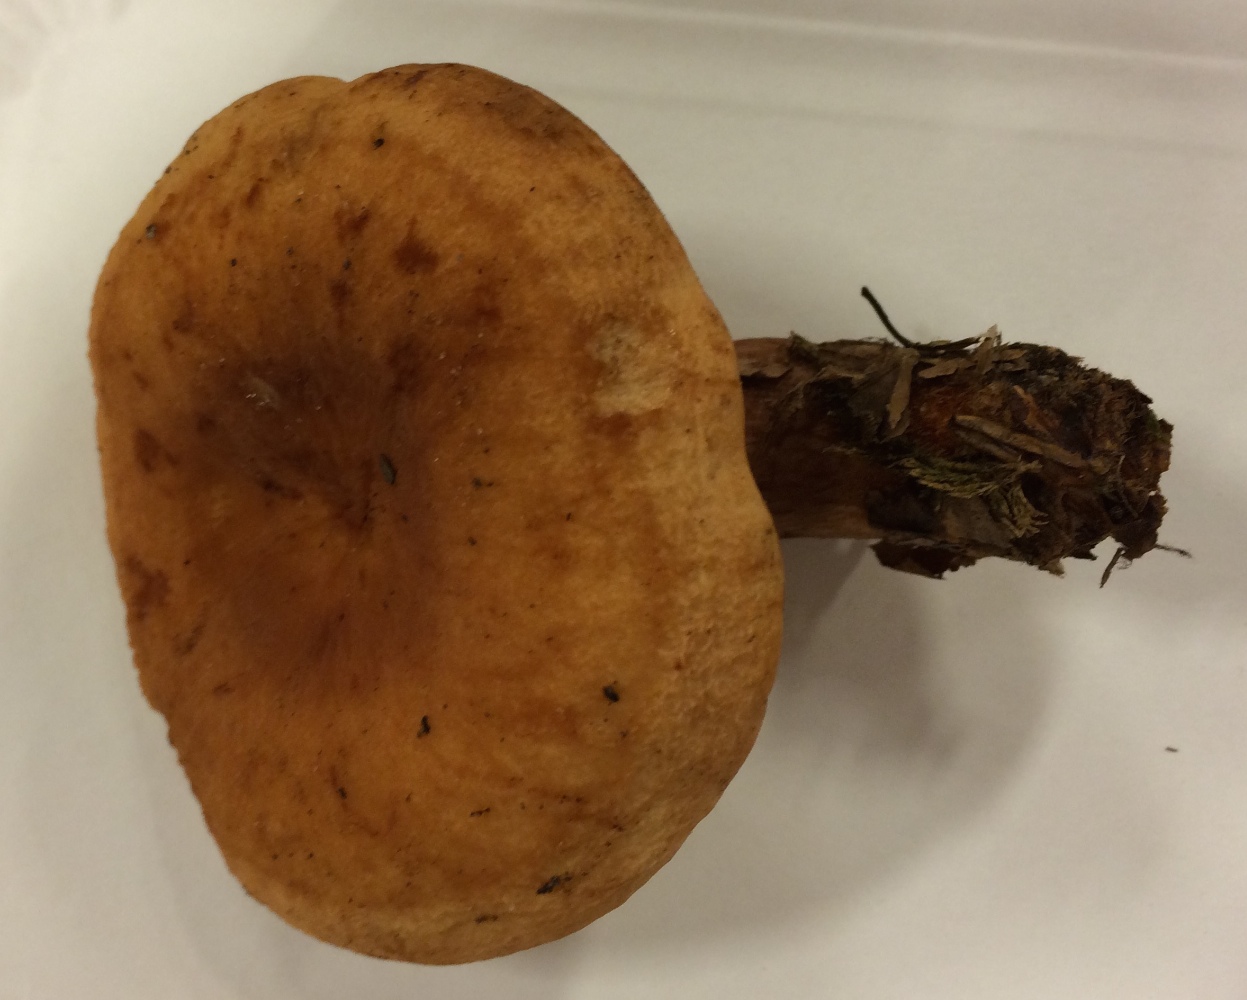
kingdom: Fungi
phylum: Basidiomycota
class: Agaricomycetes
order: Russulales
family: Russulaceae
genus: Lactarius
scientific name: Lactarius rubrocinctus
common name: halsbånd-mælkehat
